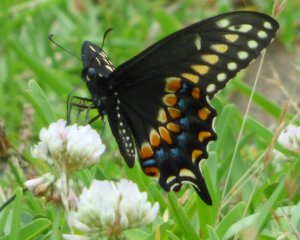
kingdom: Animalia
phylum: Arthropoda
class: Insecta
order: Lepidoptera
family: Papilionidae
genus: Papilio
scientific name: Papilio polyxenes
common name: Black Swallowtail
